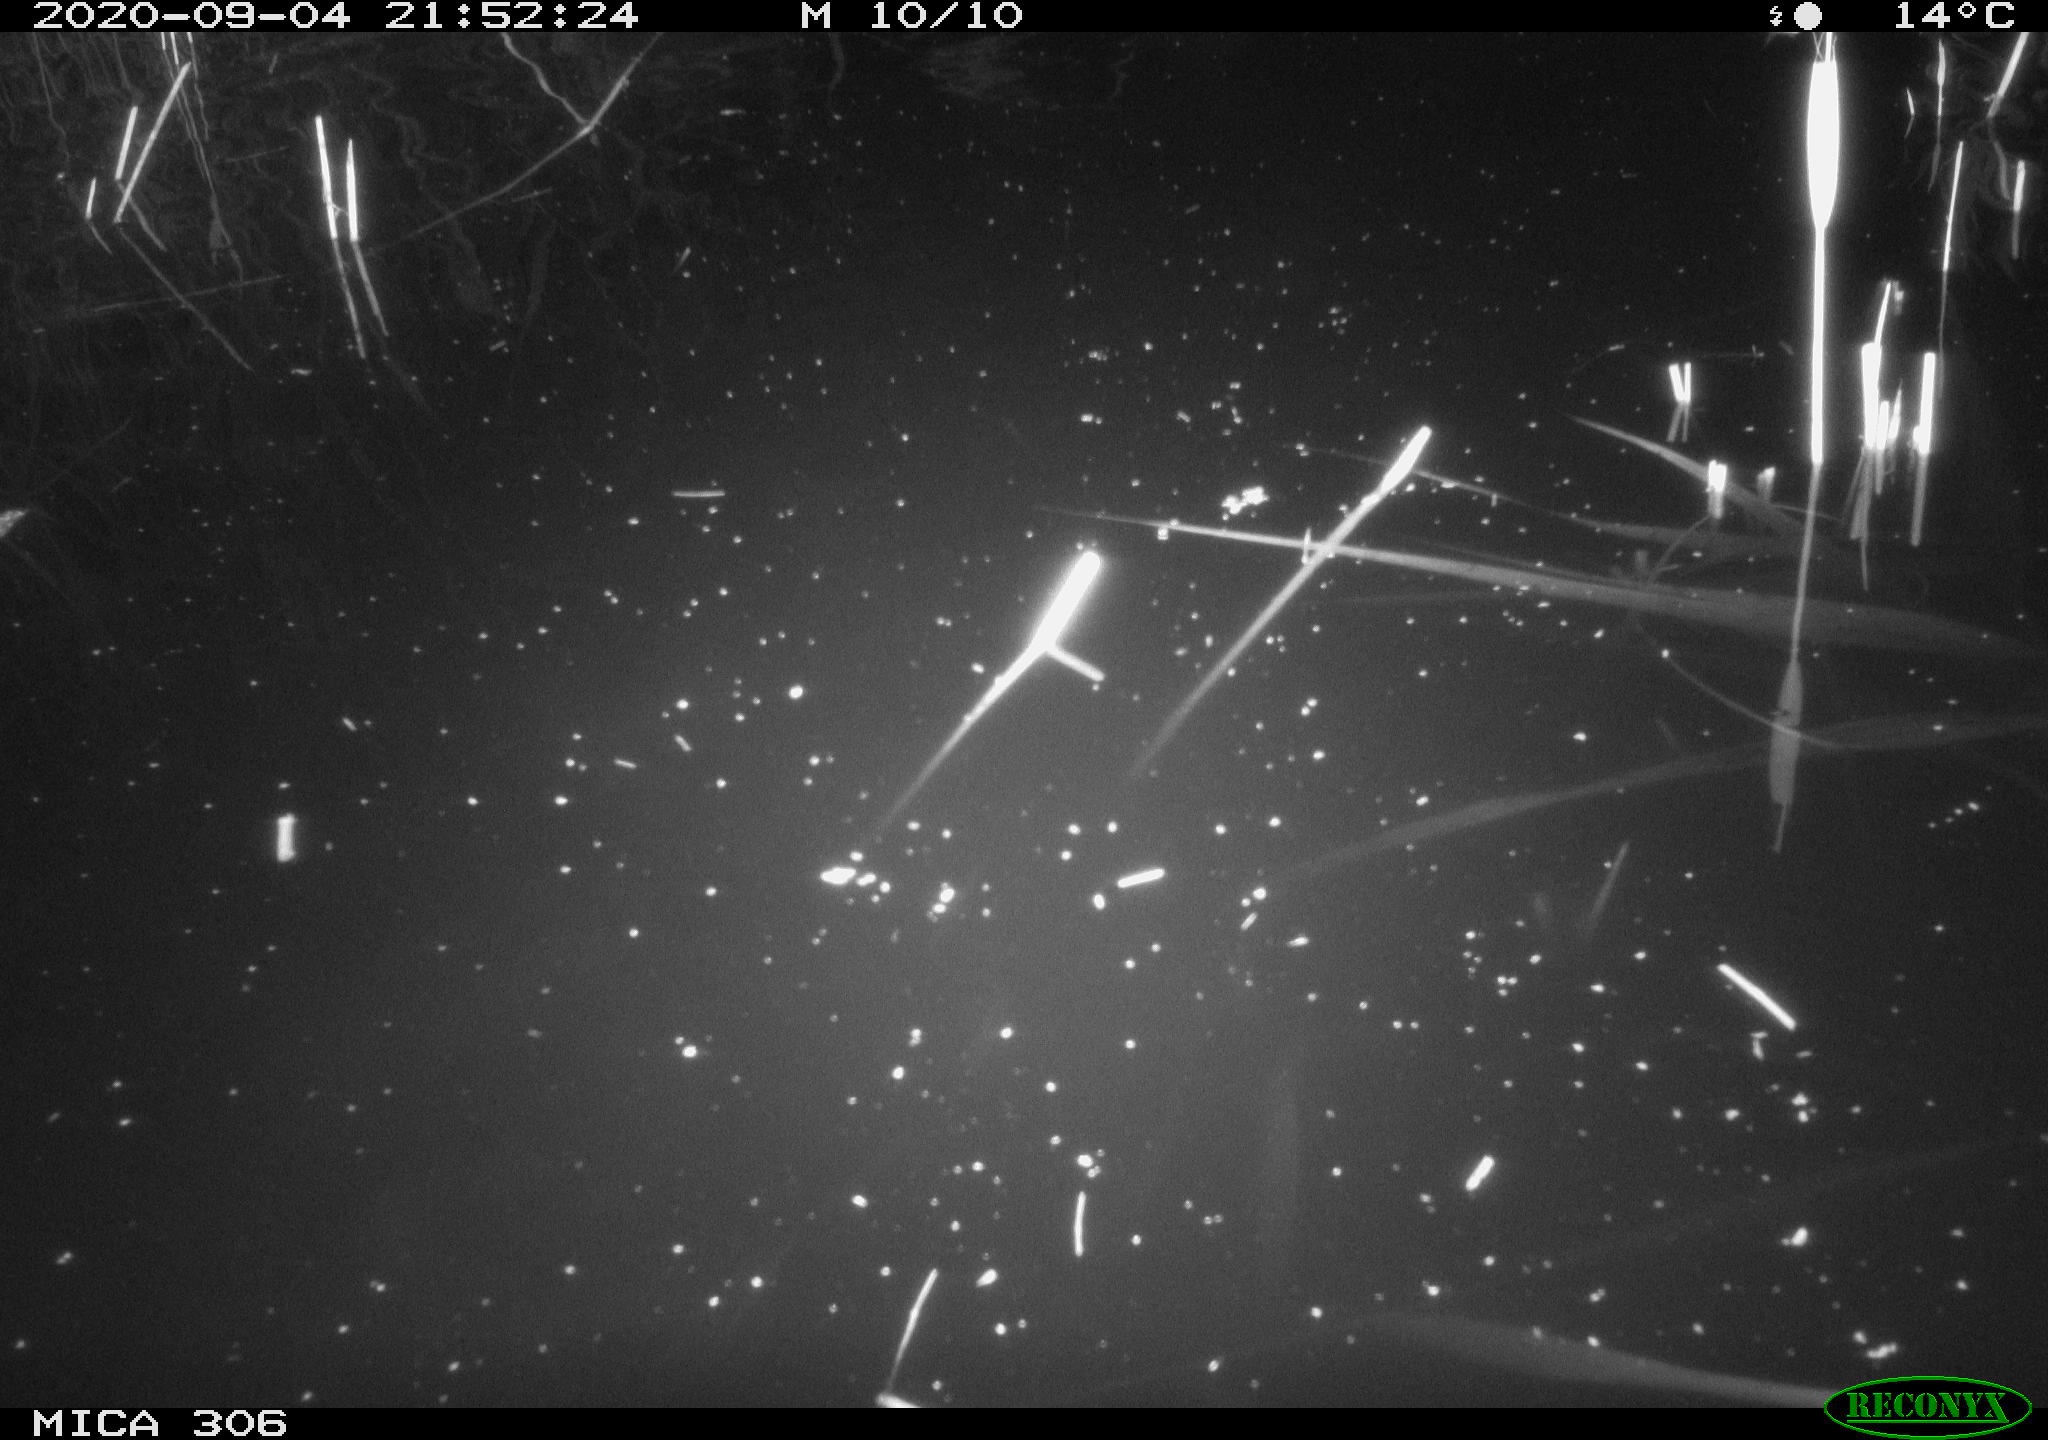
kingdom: Animalia
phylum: Chordata
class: Mammalia
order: Rodentia
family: Muridae
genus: Rattus
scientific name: Rattus norvegicus
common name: Brown rat
